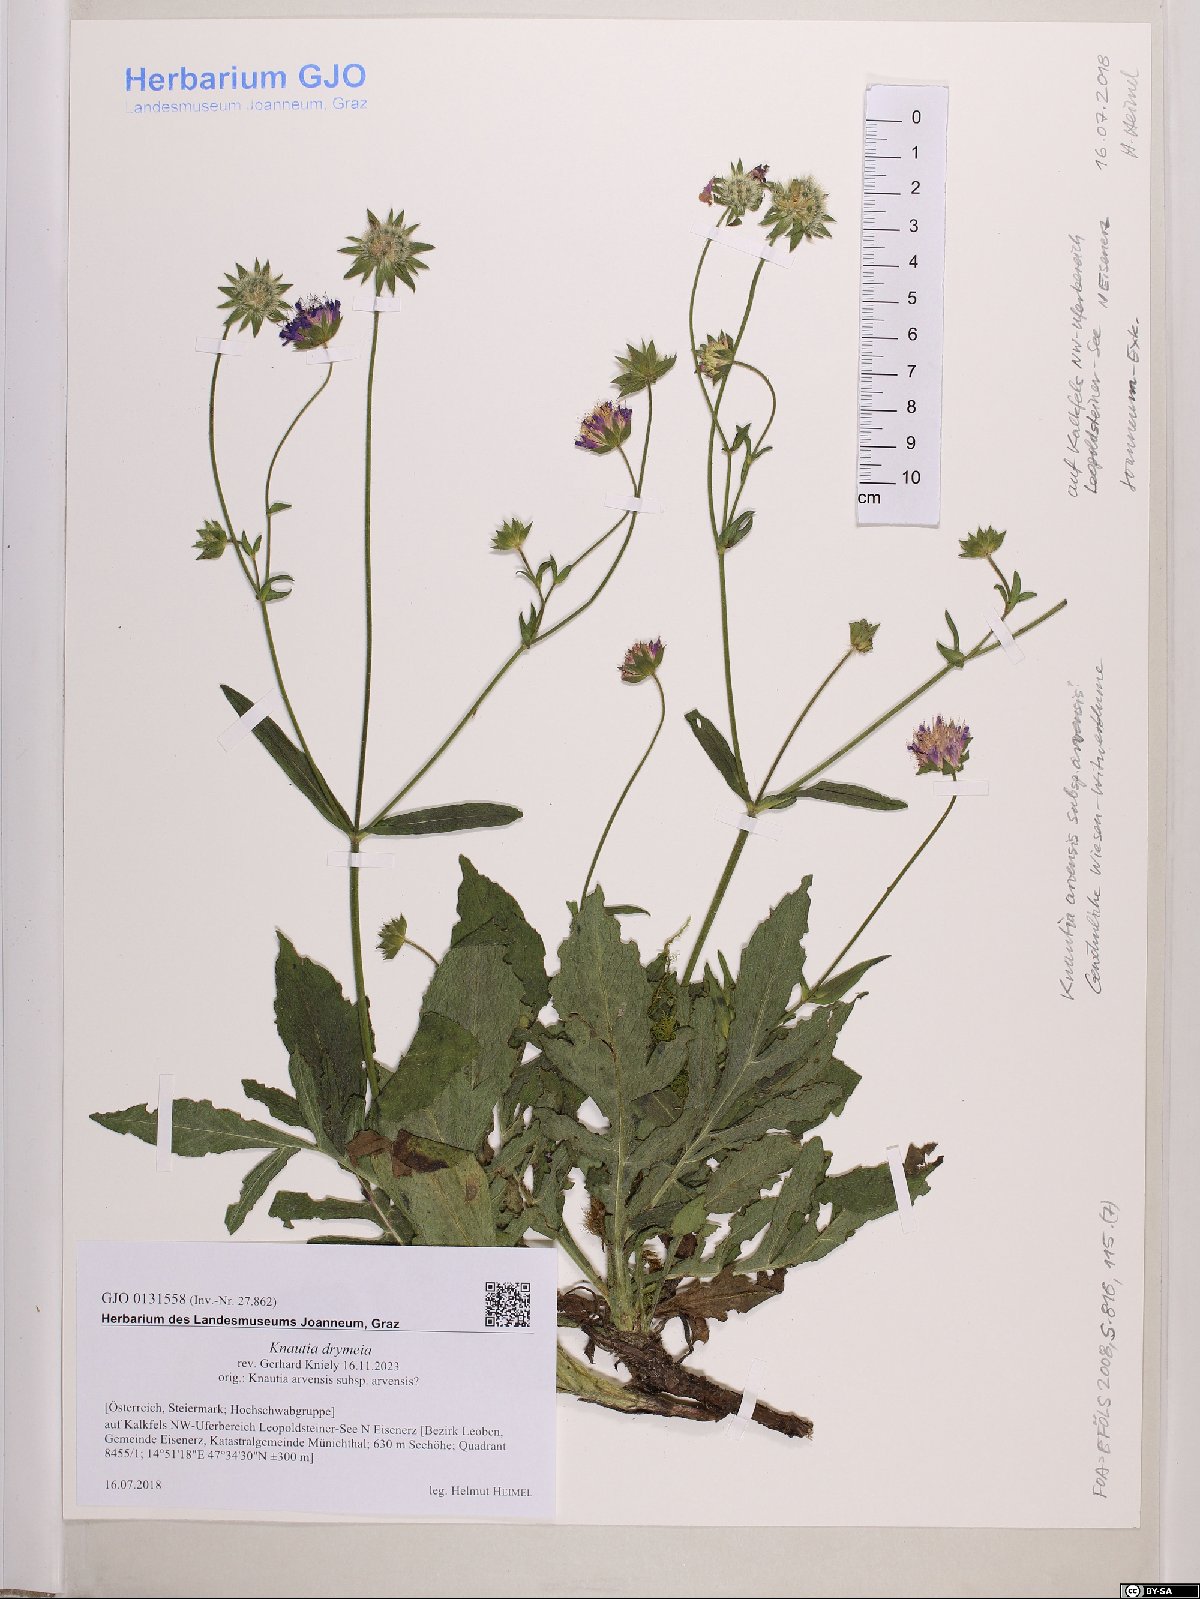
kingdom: Plantae
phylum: Tracheophyta
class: Magnoliopsida
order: Dipsacales
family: Caprifoliaceae
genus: Knautia
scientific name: Knautia drymeia
